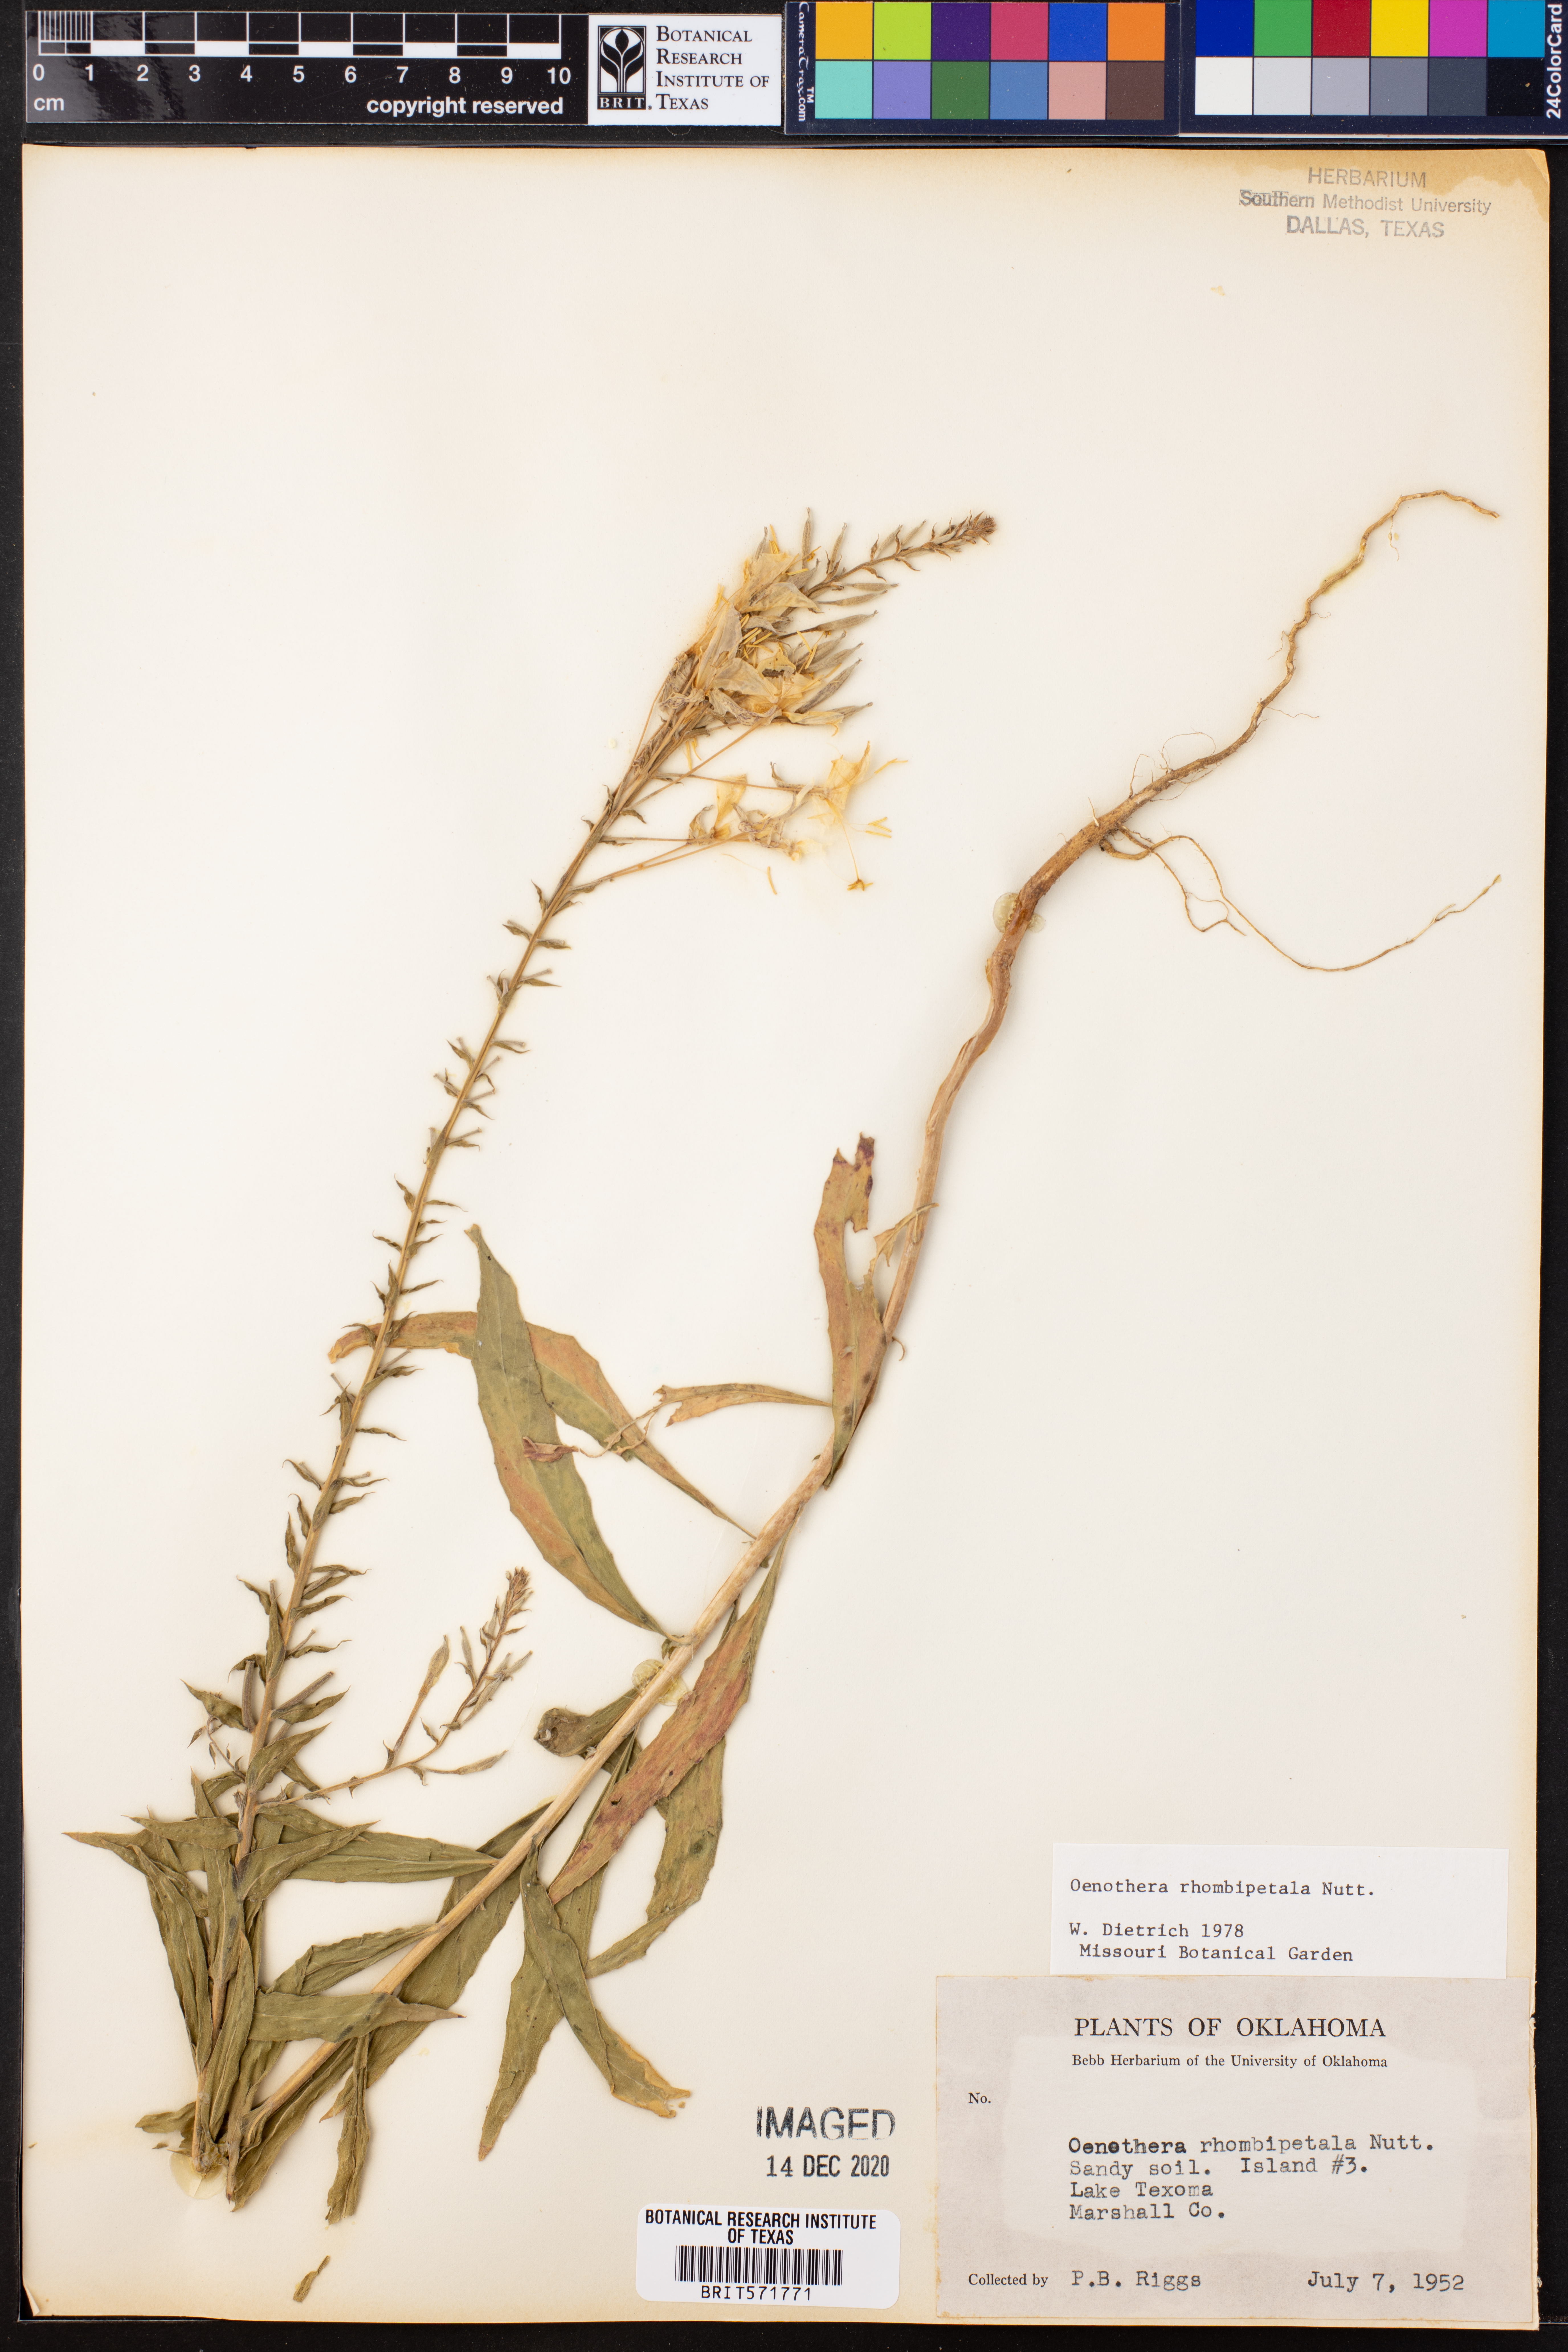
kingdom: Plantae
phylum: Tracheophyta
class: Magnoliopsida
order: Myrtales
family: Onagraceae
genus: Oenothera
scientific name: Oenothera rhombipetala
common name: Four-points evening-primrose
